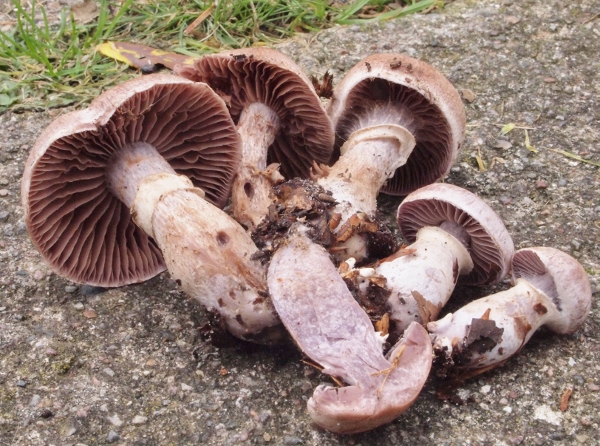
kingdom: Fungi
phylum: Basidiomycota
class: Agaricomycetes
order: Agaricales
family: Cortinariaceae
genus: Cortinarius
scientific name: Cortinarius torvus
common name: champignonagtig slørhat
